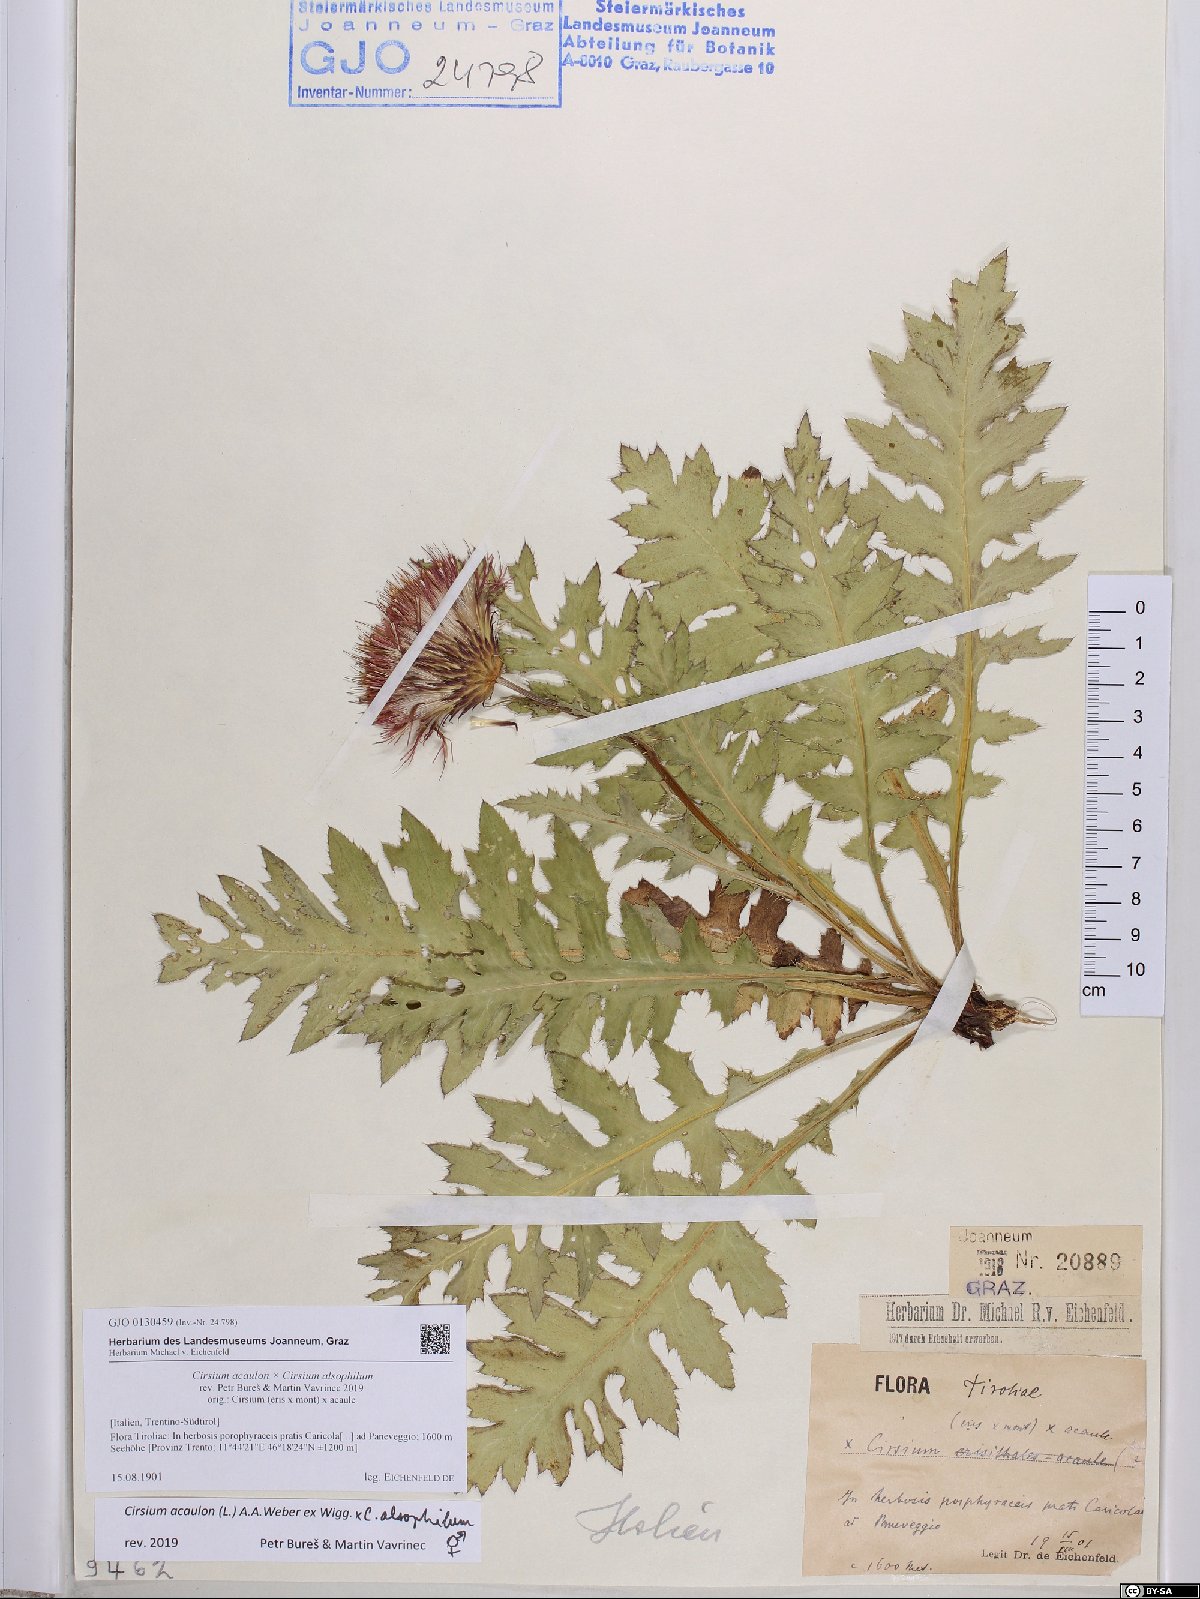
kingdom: Plantae
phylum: Tracheophyta
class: Magnoliopsida
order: Asterales
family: Asteraceae
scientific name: Asteraceae
